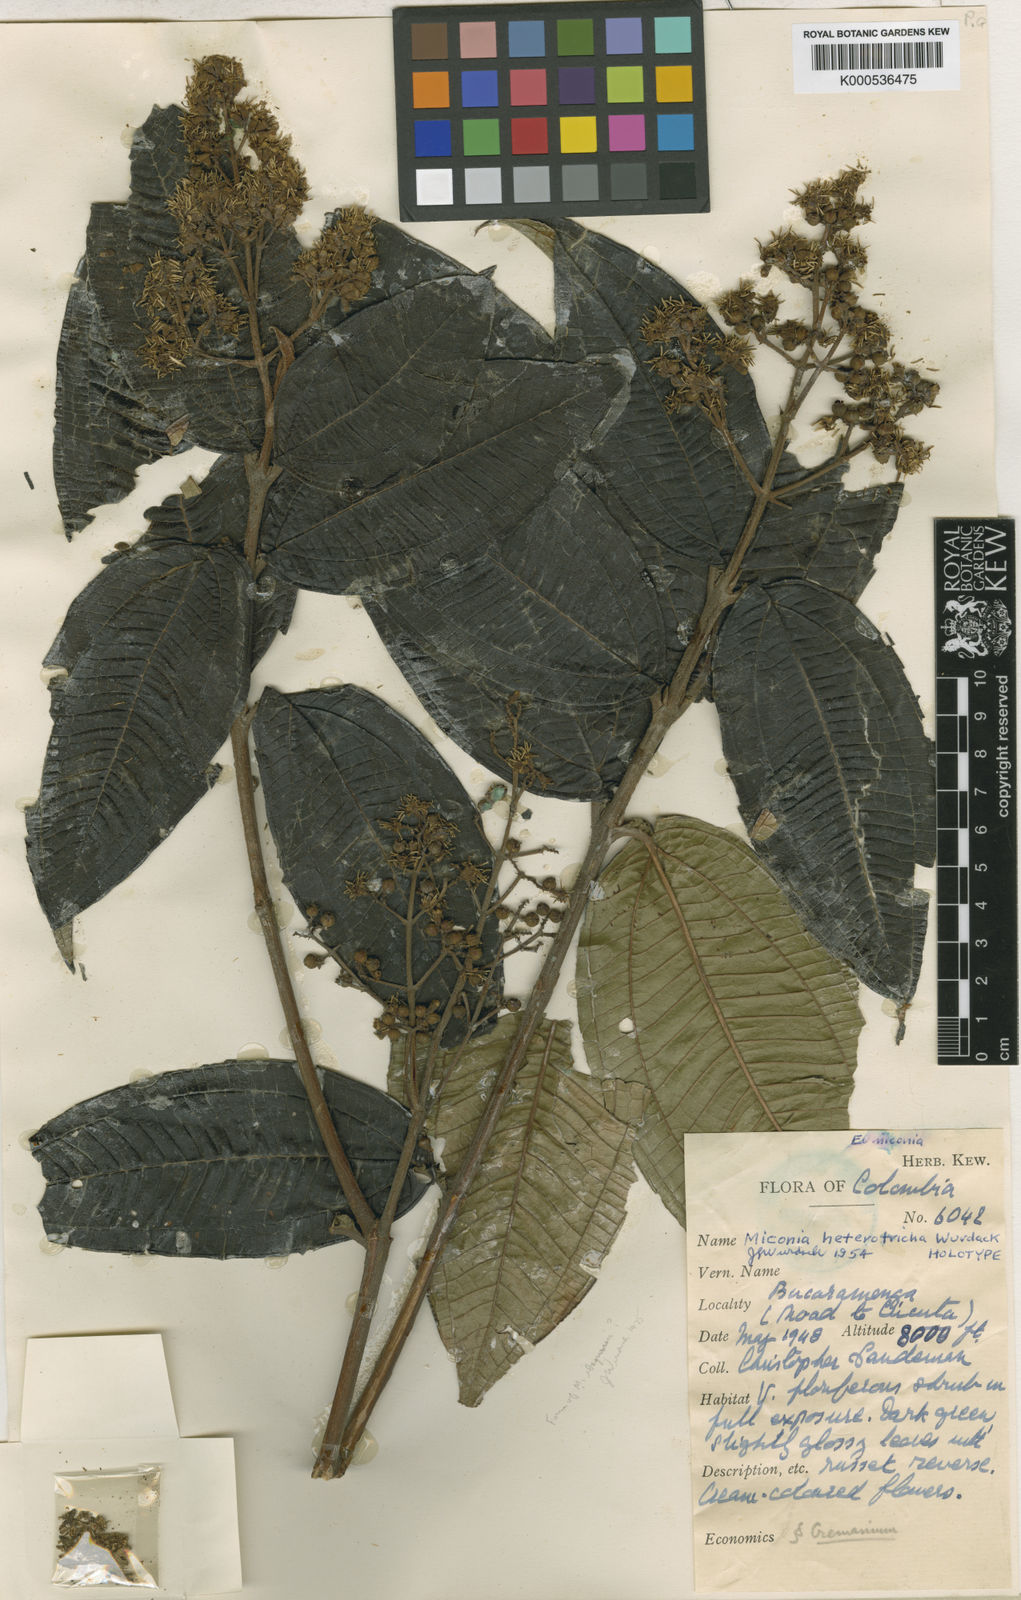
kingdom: Plantae
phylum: Tracheophyta
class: Magnoliopsida
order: Myrtales
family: Melastomataceae
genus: Miconia
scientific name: Miconia heterotricha
